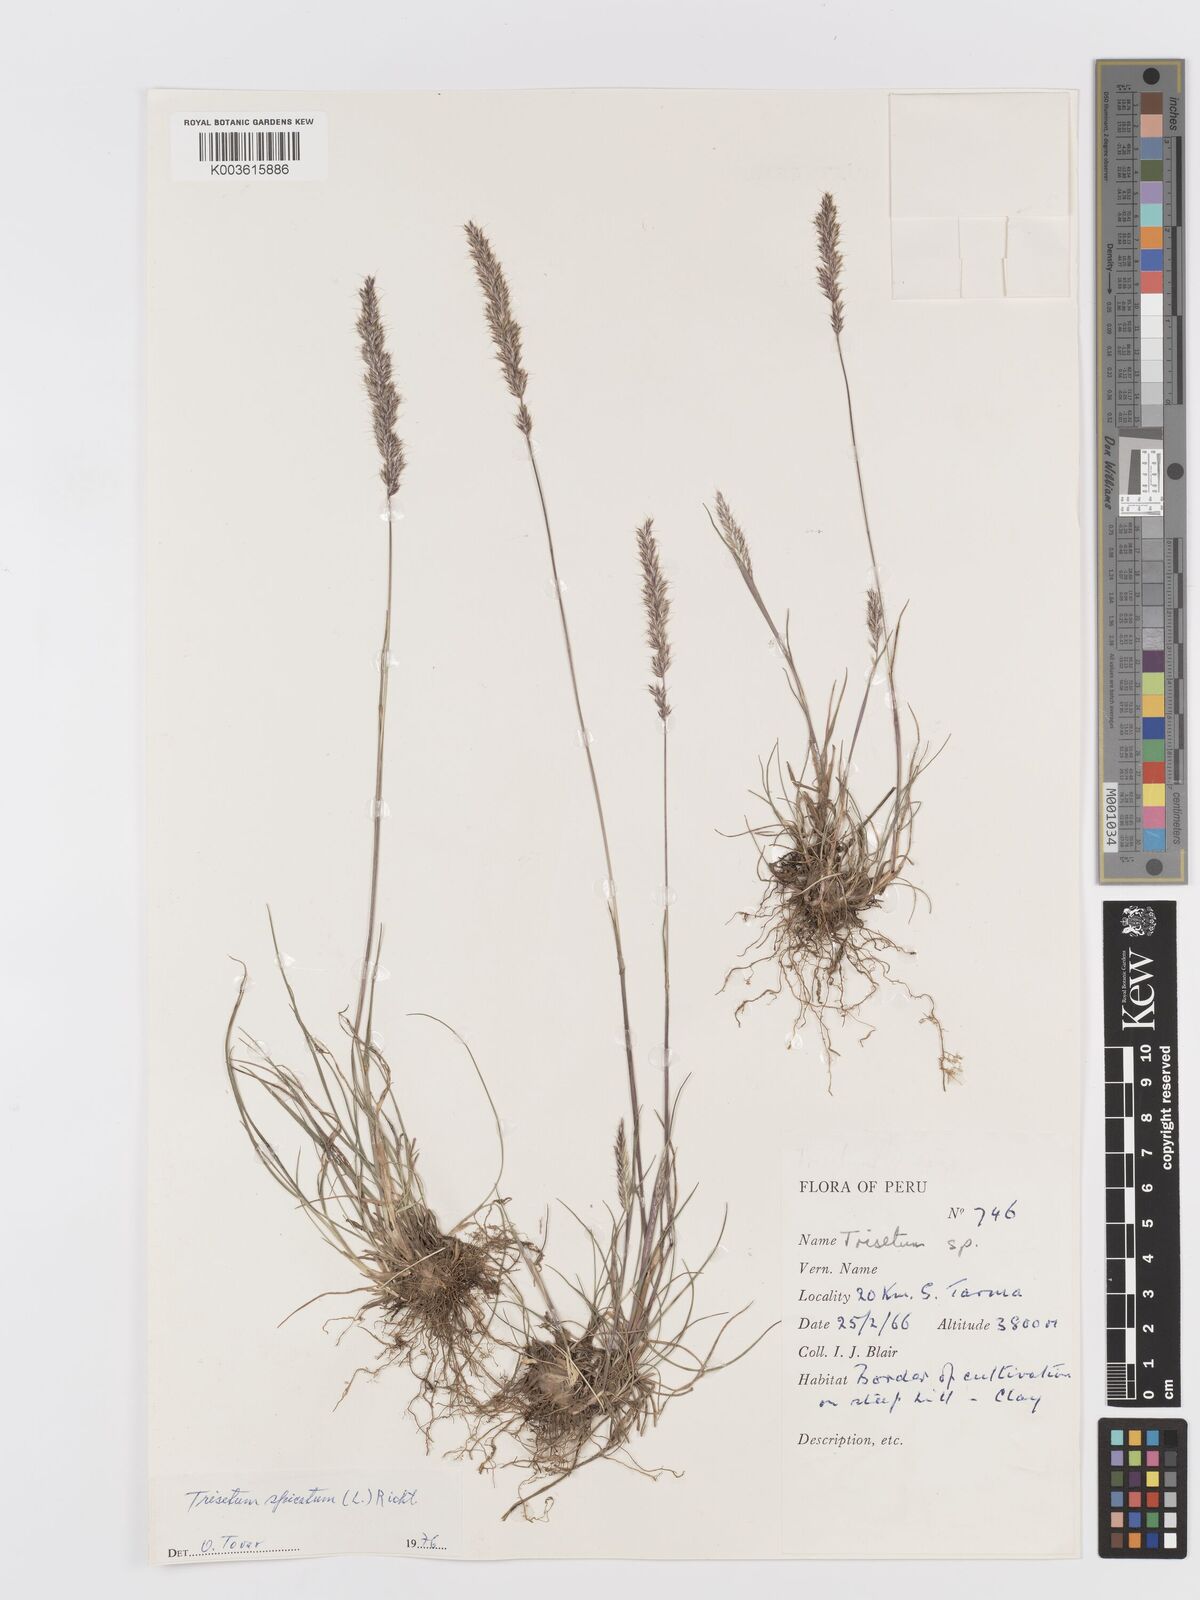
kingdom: Plantae
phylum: Tracheophyta
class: Liliopsida
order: Poales
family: Poaceae
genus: Koeleria
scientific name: Koeleria spicata
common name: Mountain trisetum
